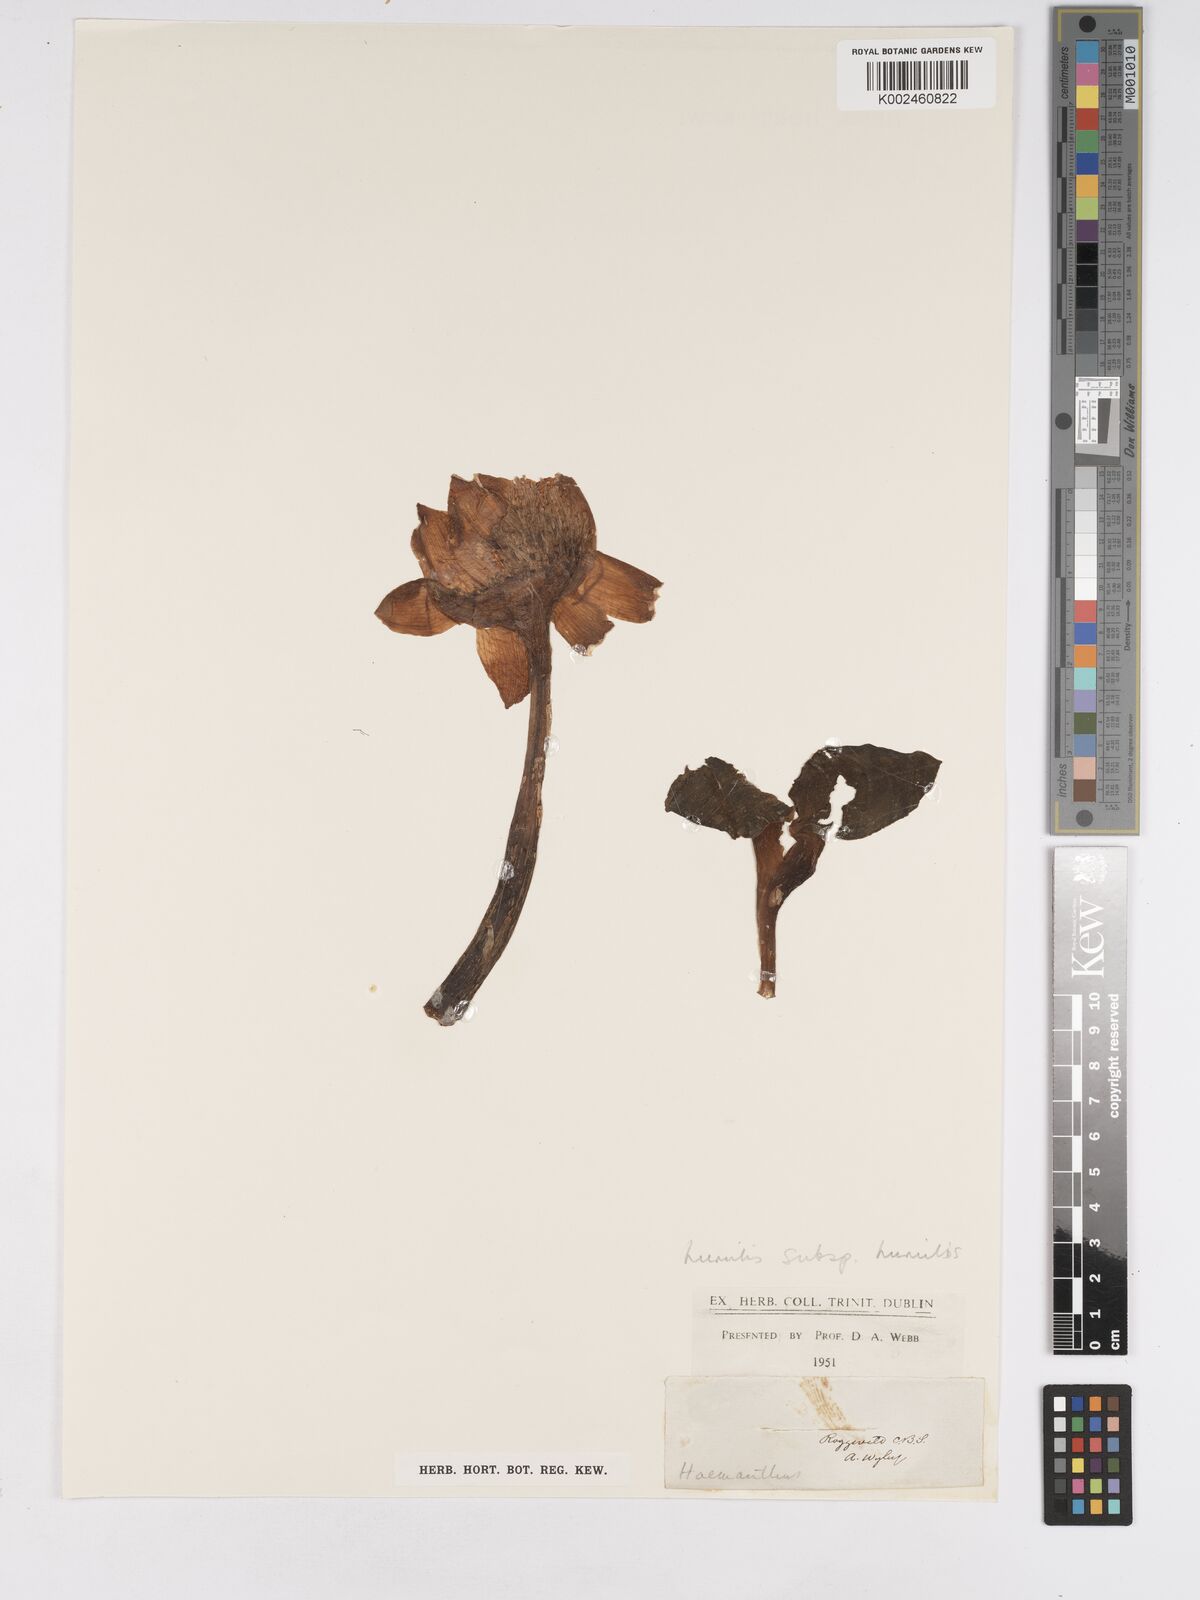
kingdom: Plantae
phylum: Tracheophyta
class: Liliopsida
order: Asparagales
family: Amaryllidaceae
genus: Haemanthus
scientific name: Haemanthus humilis
